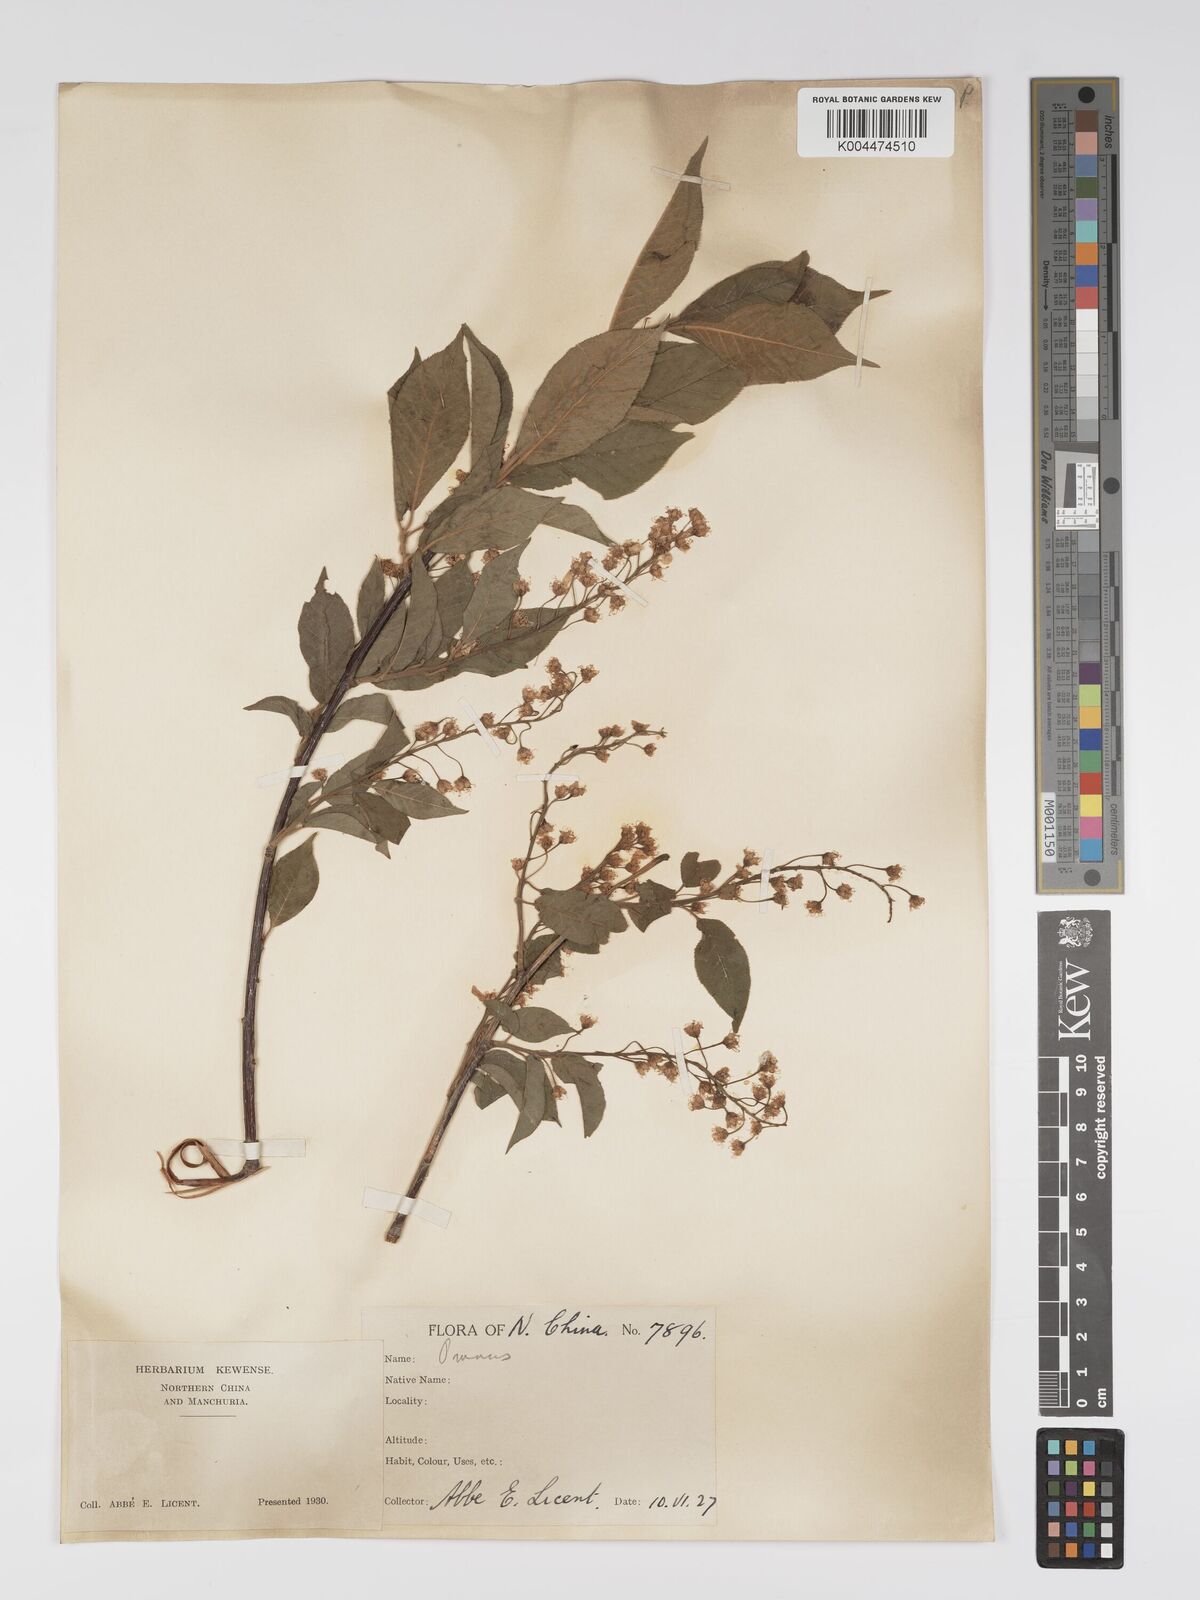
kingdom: Plantae
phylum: Tracheophyta
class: Magnoliopsida
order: Rosales
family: Rosaceae
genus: Prunus
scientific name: Prunus
